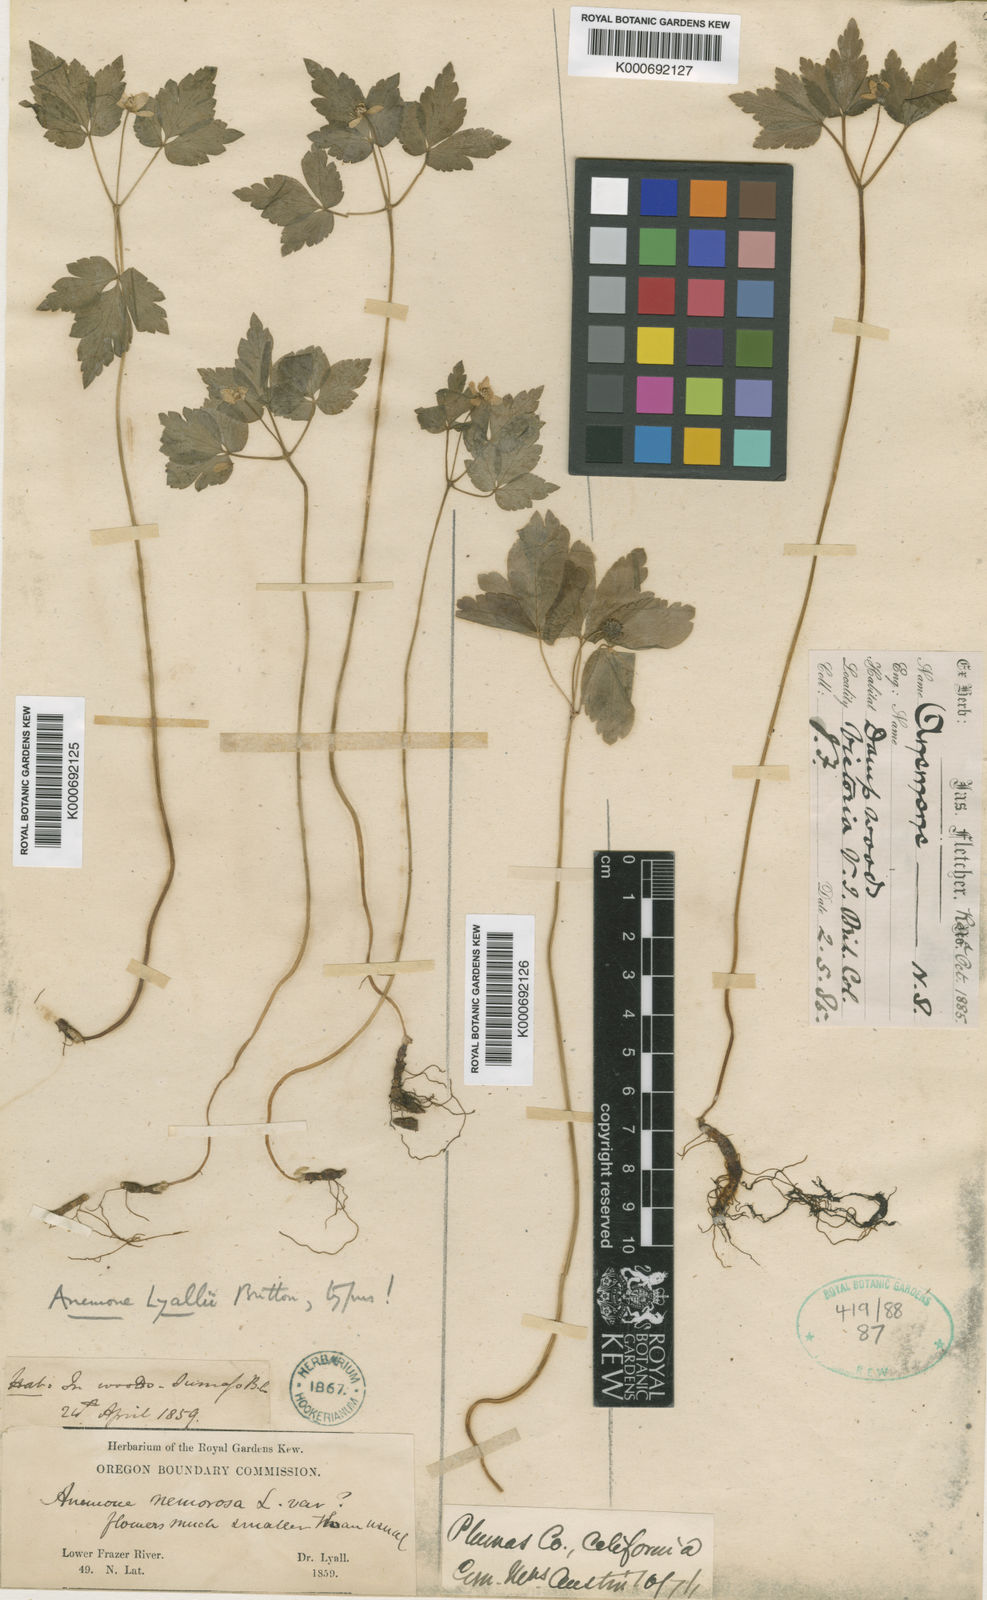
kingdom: Plantae
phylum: Tracheophyta
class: Magnoliopsida
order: Ranunculales
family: Ranunculaceae
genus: Anemone
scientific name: Anemone
